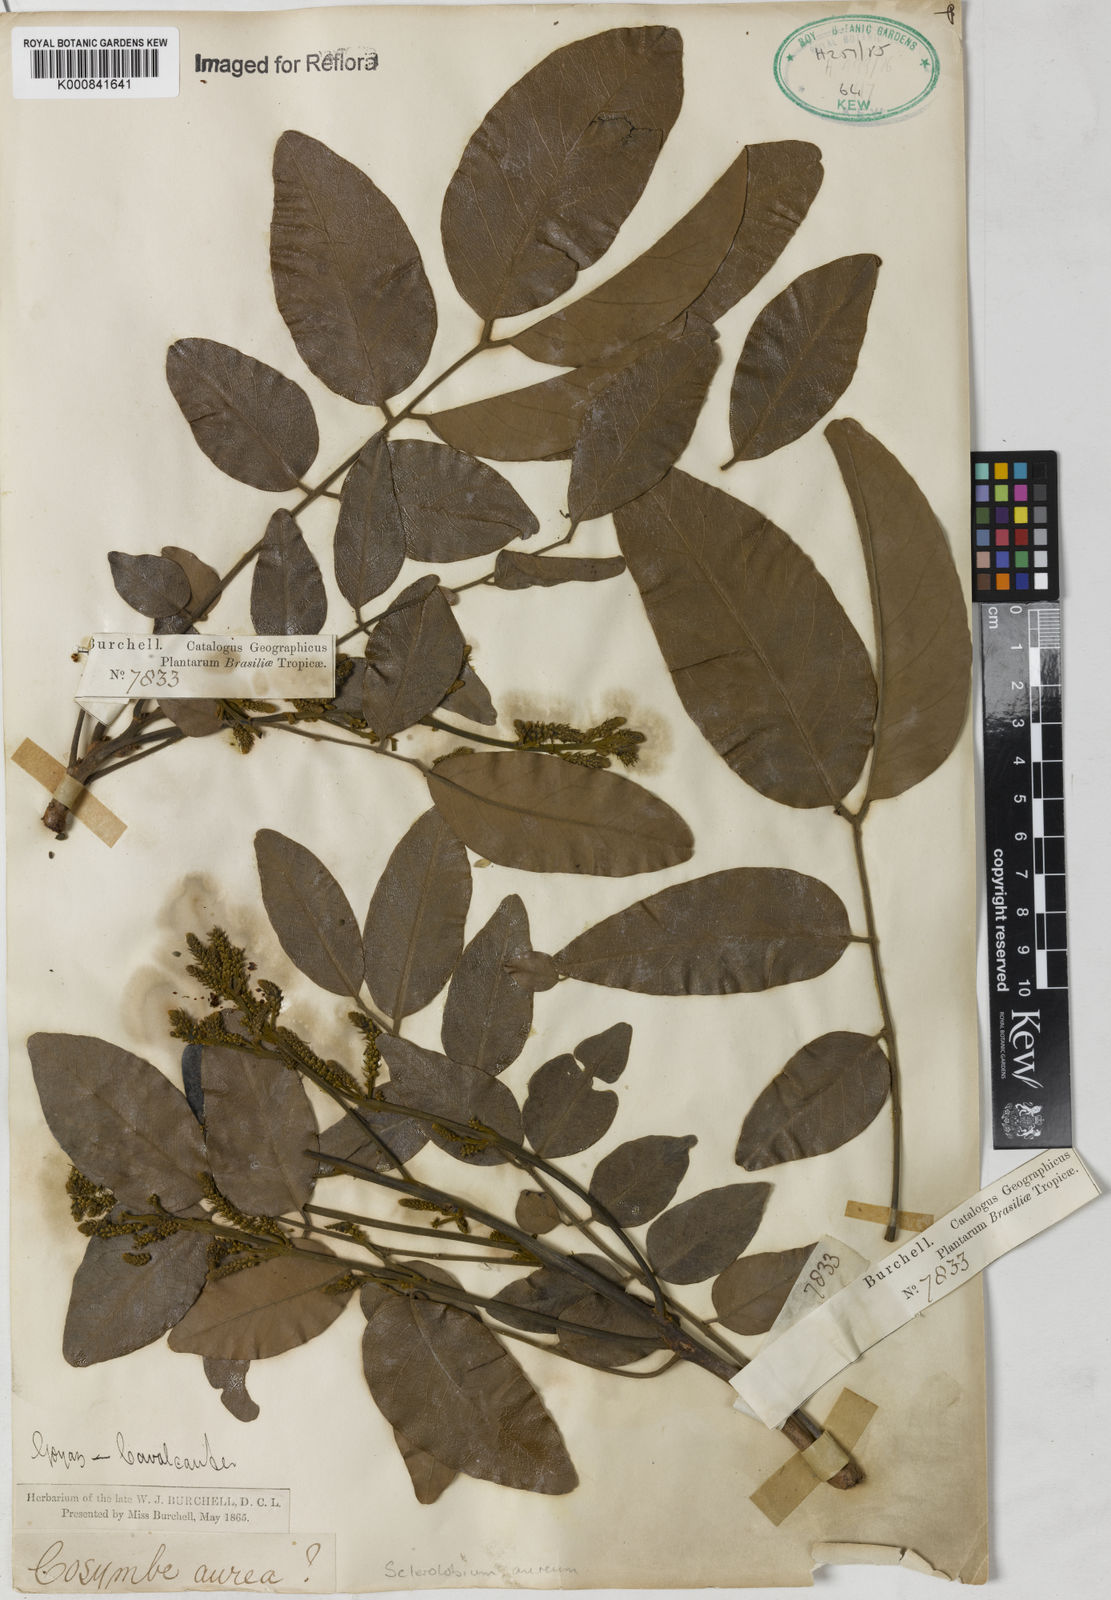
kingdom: Plantae
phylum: Tracheophyta
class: Magnoliopsida
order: Fabales
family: Fabaceae
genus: Tachigali
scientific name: Tachigali aurea
